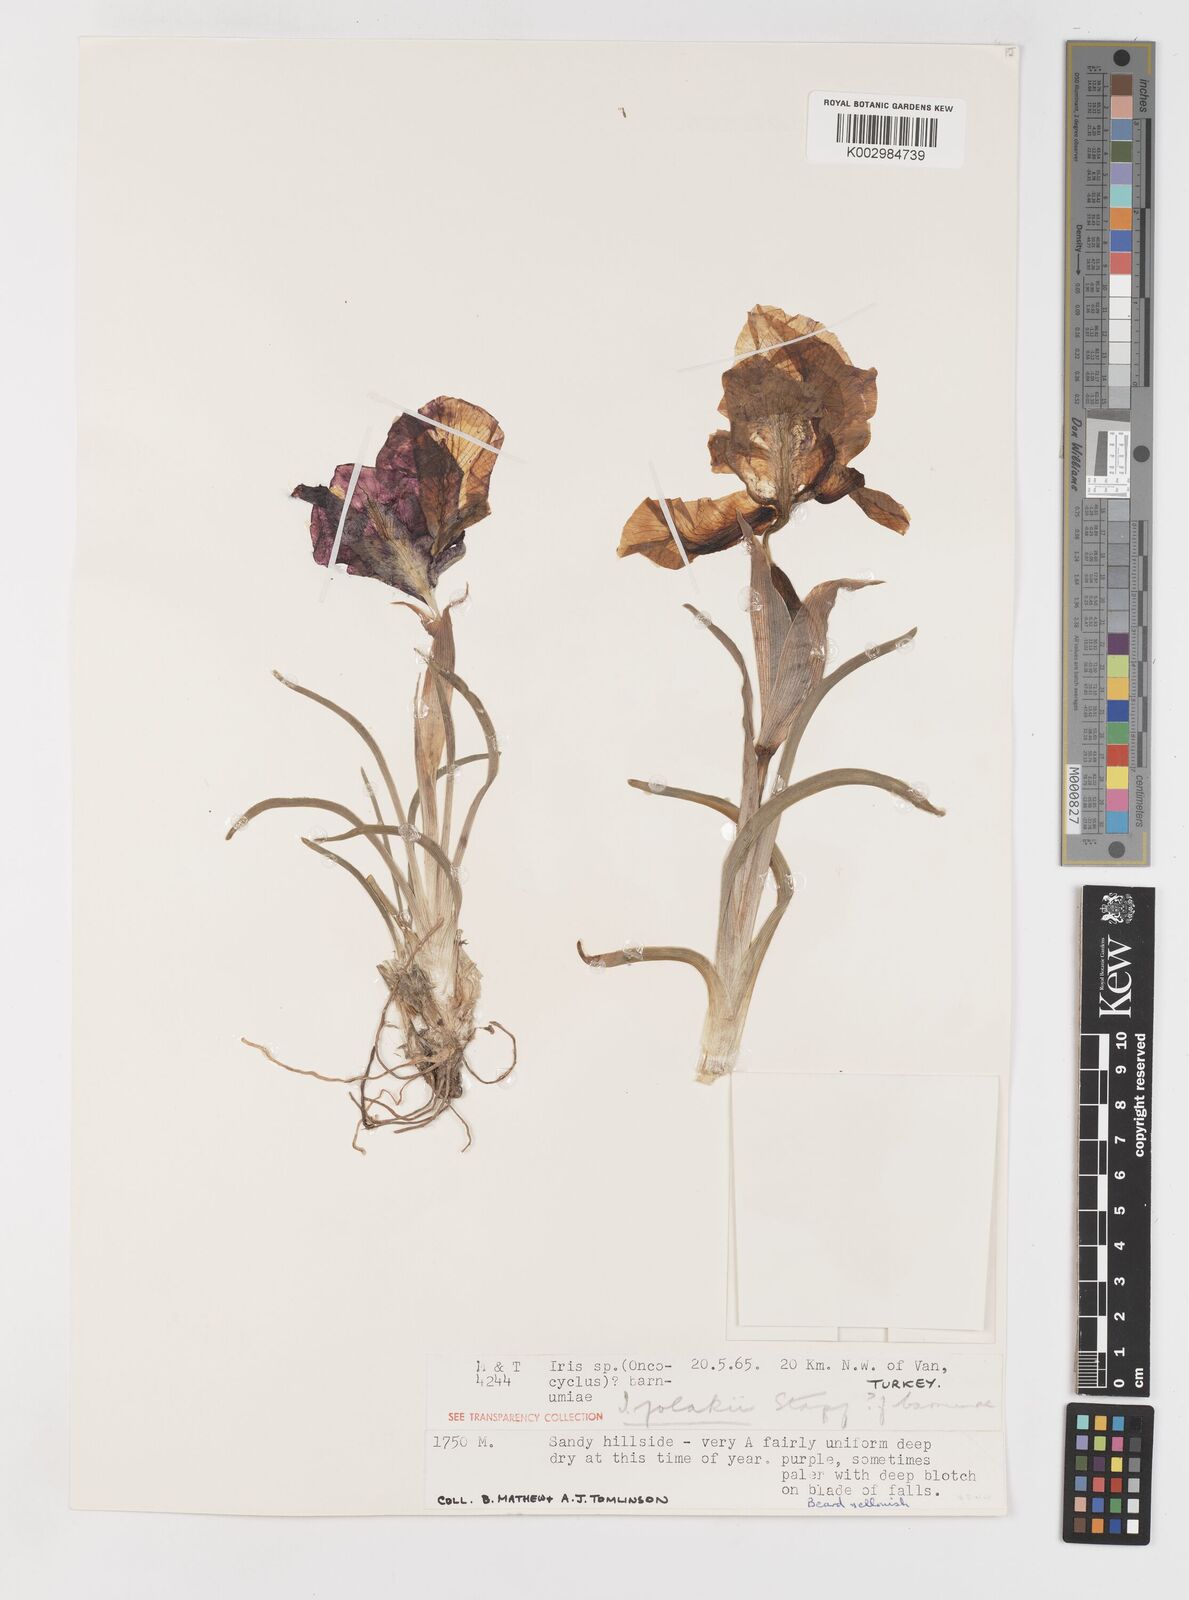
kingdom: Plantae
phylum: Tracheophyta
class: Liliopsida
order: Asparagales
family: Iridaceae
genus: Iris
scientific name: Iris barnumiae
